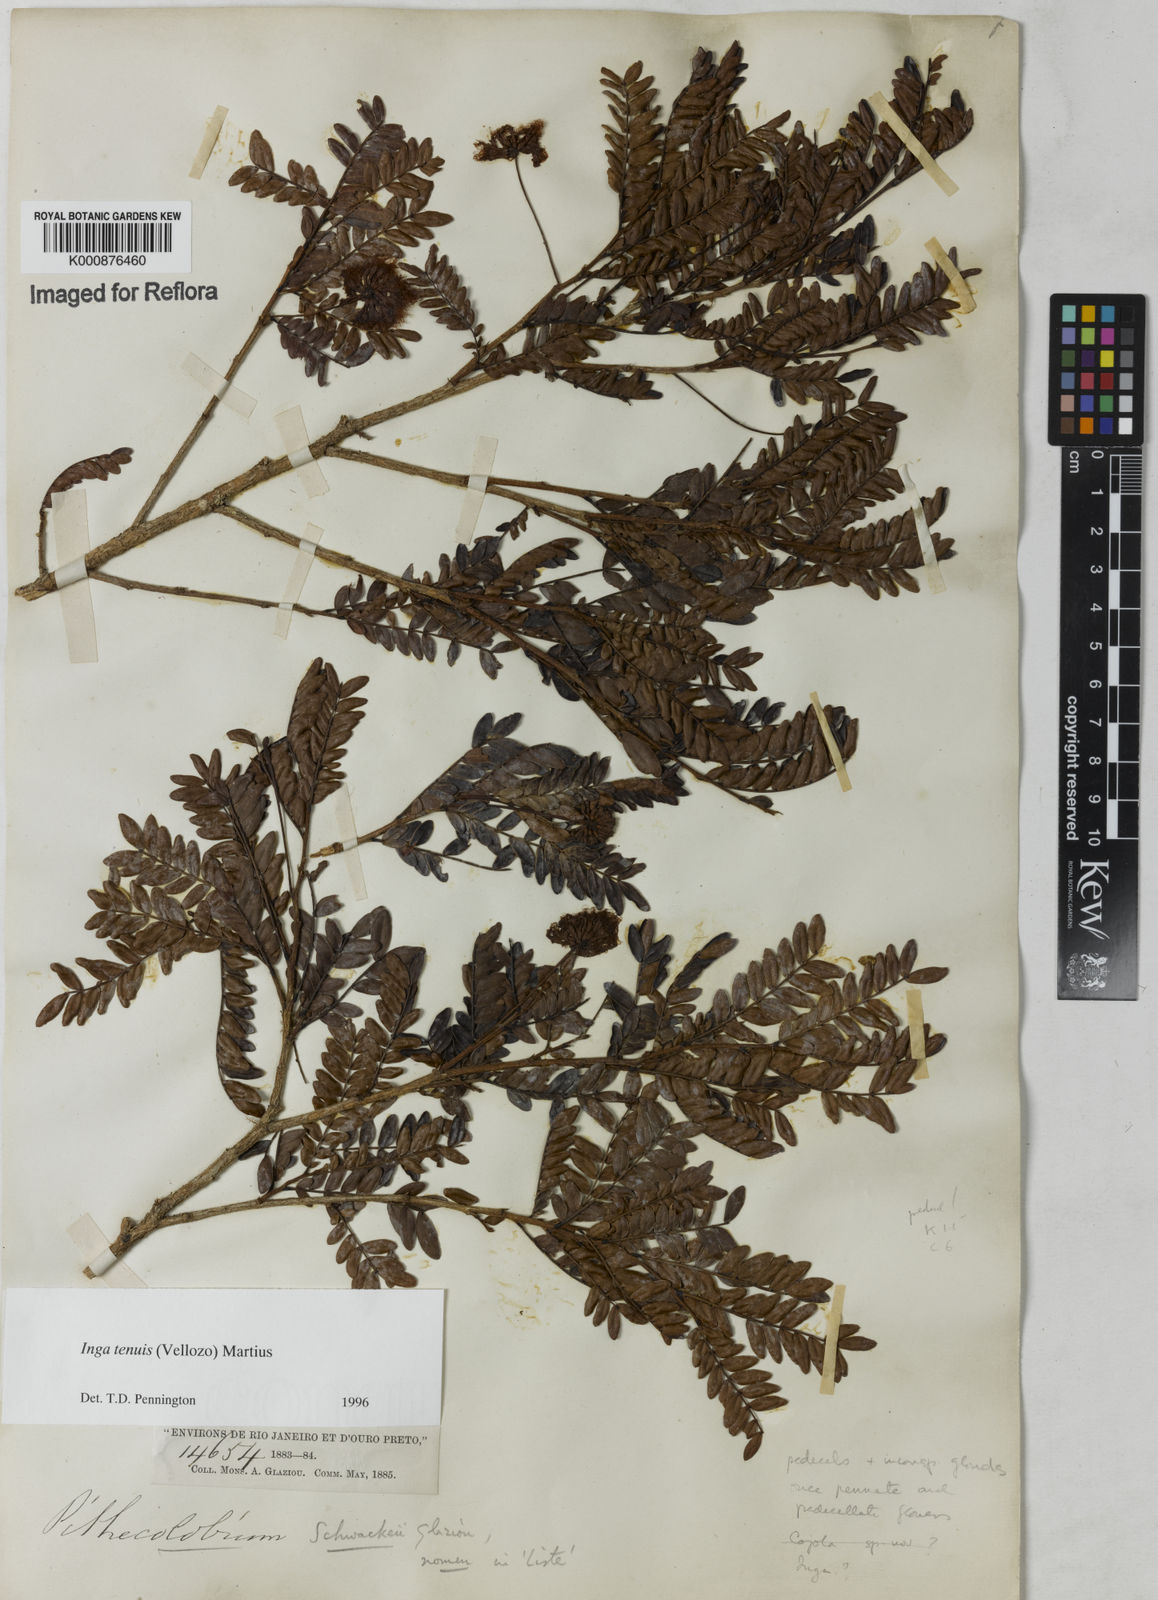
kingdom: Plantae
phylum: Tracheophyta
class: Magnoliopsida
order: Fabales
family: Fabaceae
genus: Inga
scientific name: Inga tenuis
